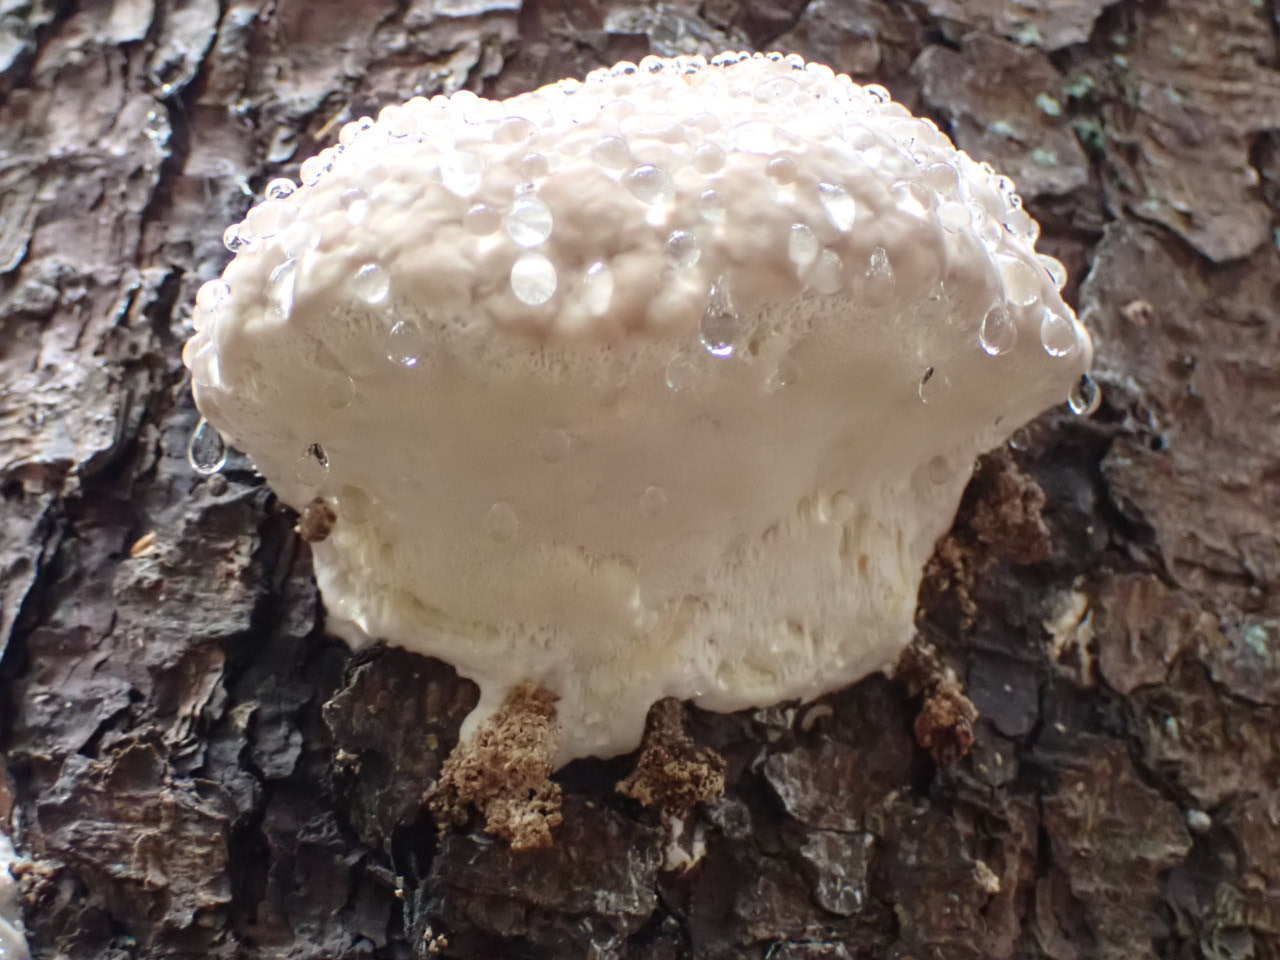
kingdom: Fungi
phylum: Basidiomycota
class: Agaricomycetes
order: Polyporales
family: Fomitopsidaceae
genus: Fomitopsis
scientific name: Fomitopsis pinicola
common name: randbæltet hovporesvamp
